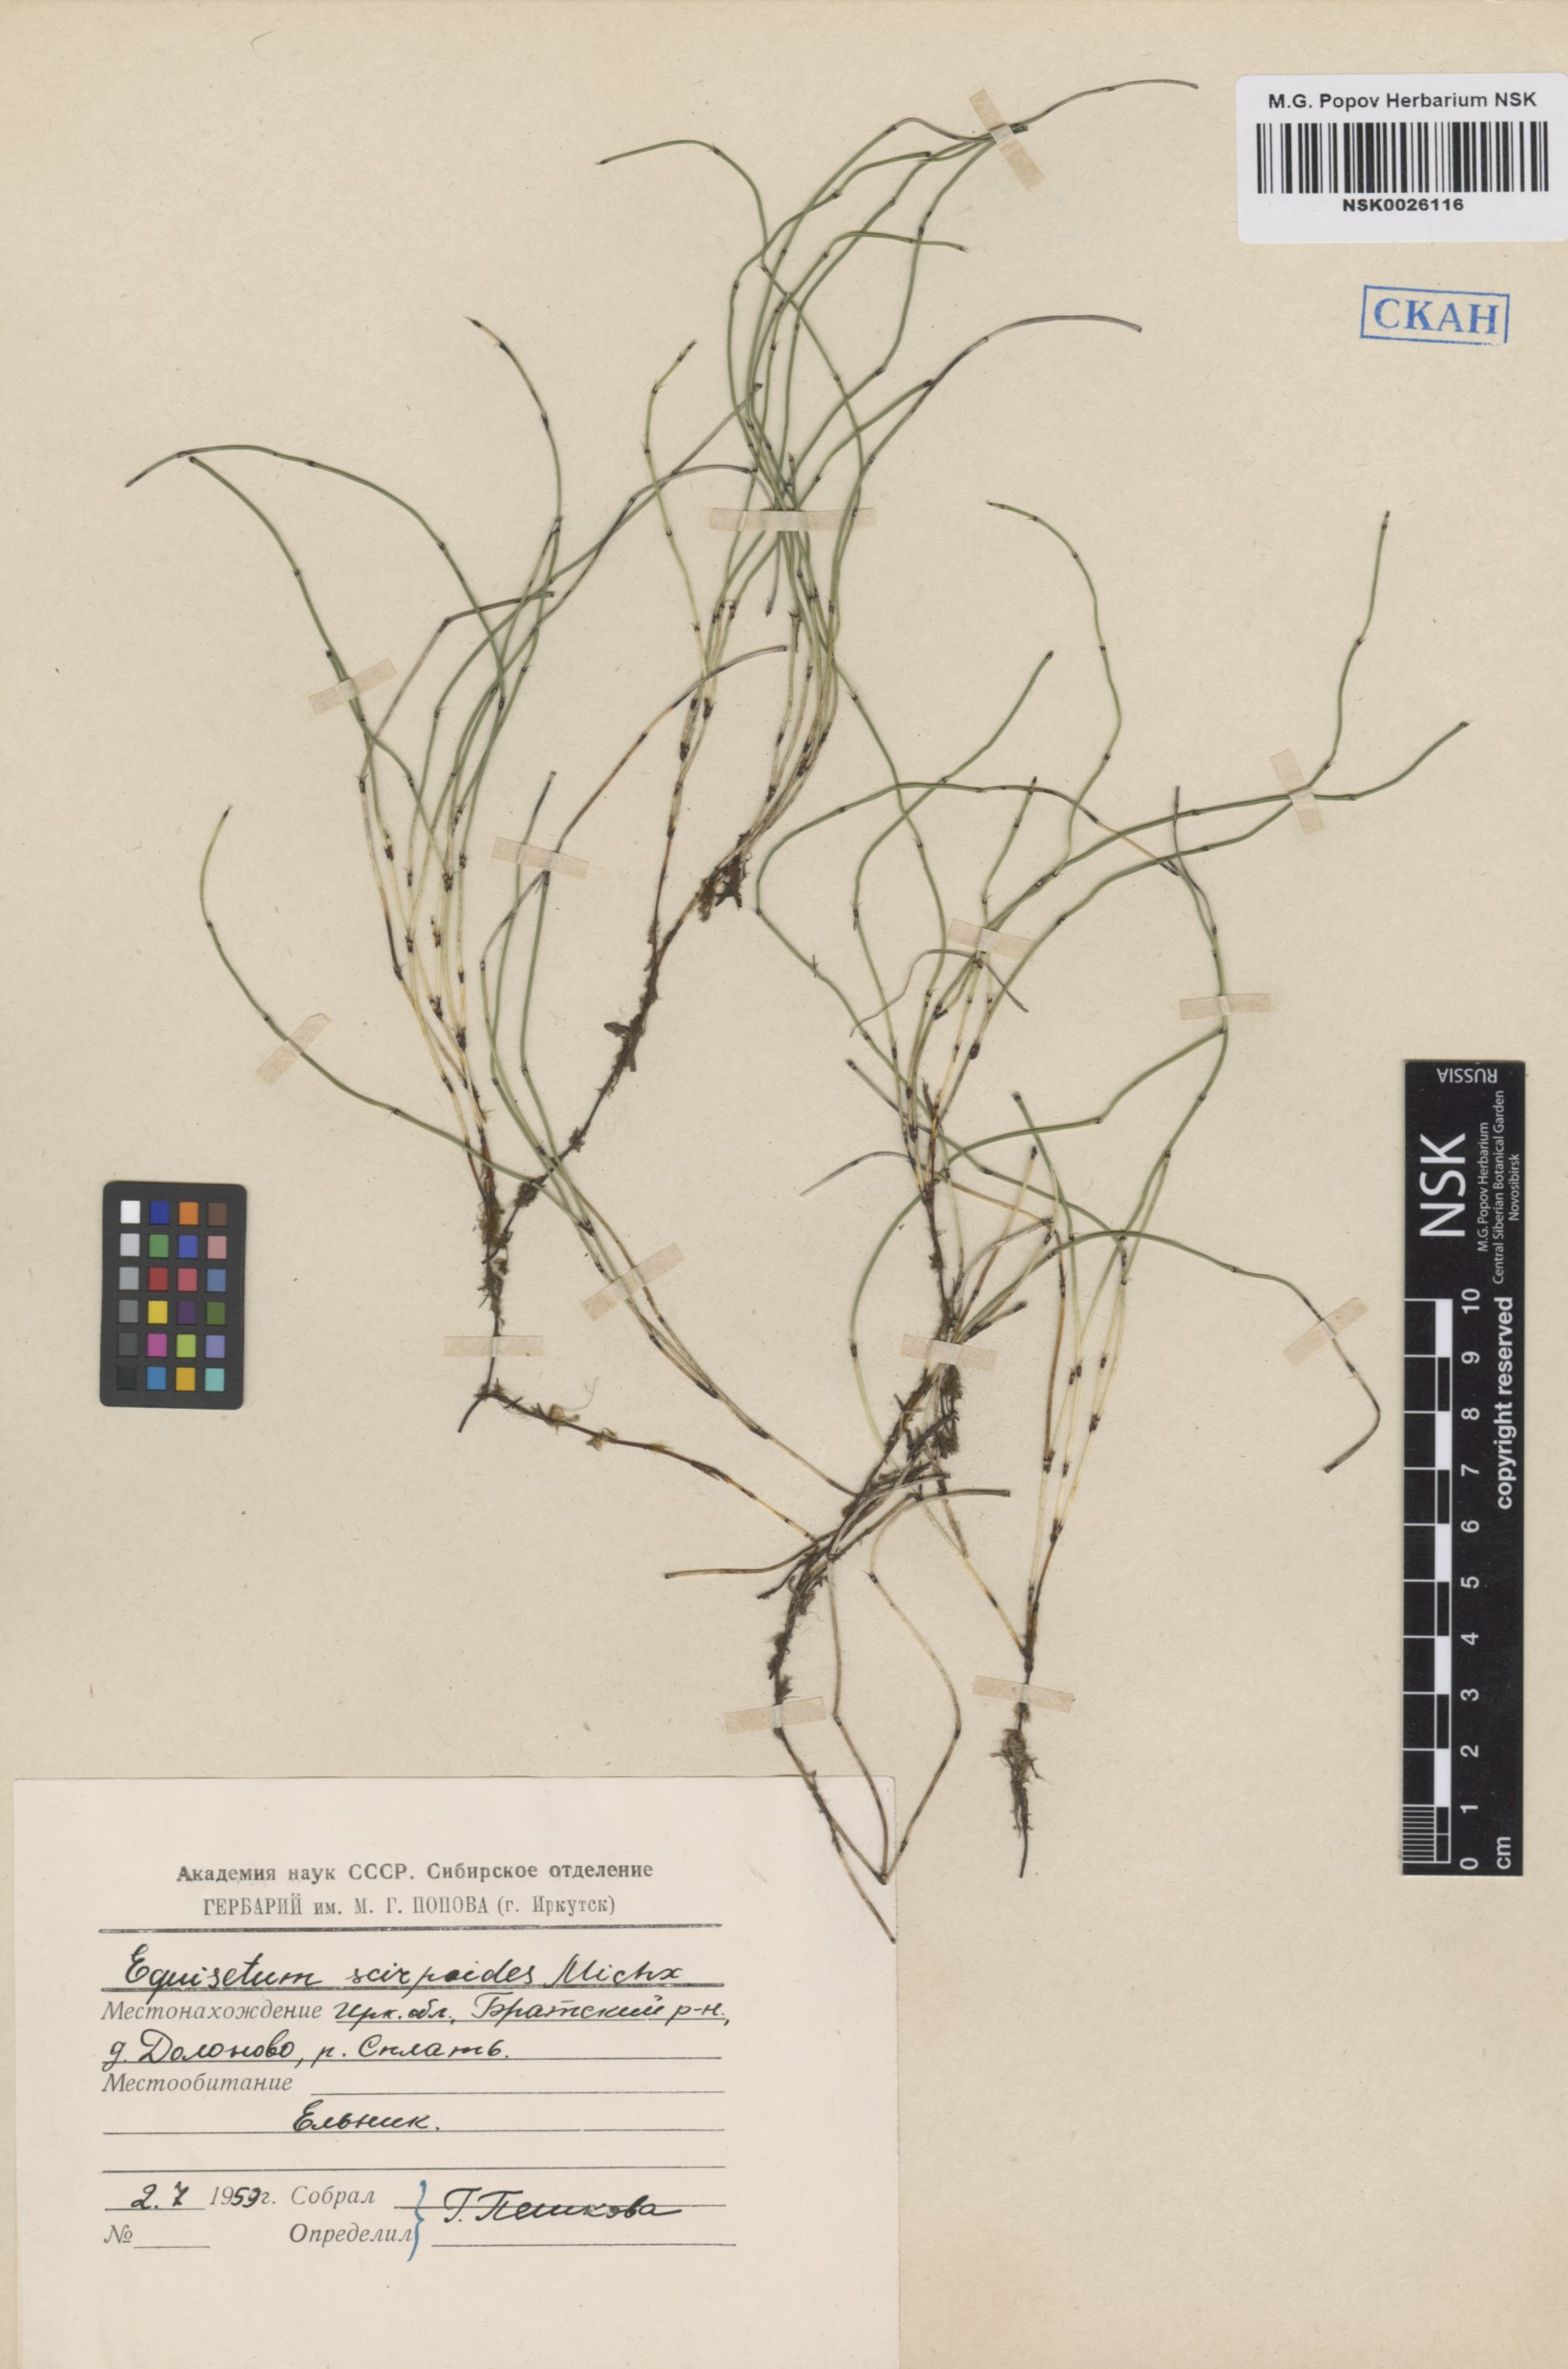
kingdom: Plantae
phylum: Tracheophyta
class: Polypodiopsida
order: Equisetales
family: Equisetaceae
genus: Equisetum
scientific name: Equisetum scirpoides
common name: Delicate horsetail
